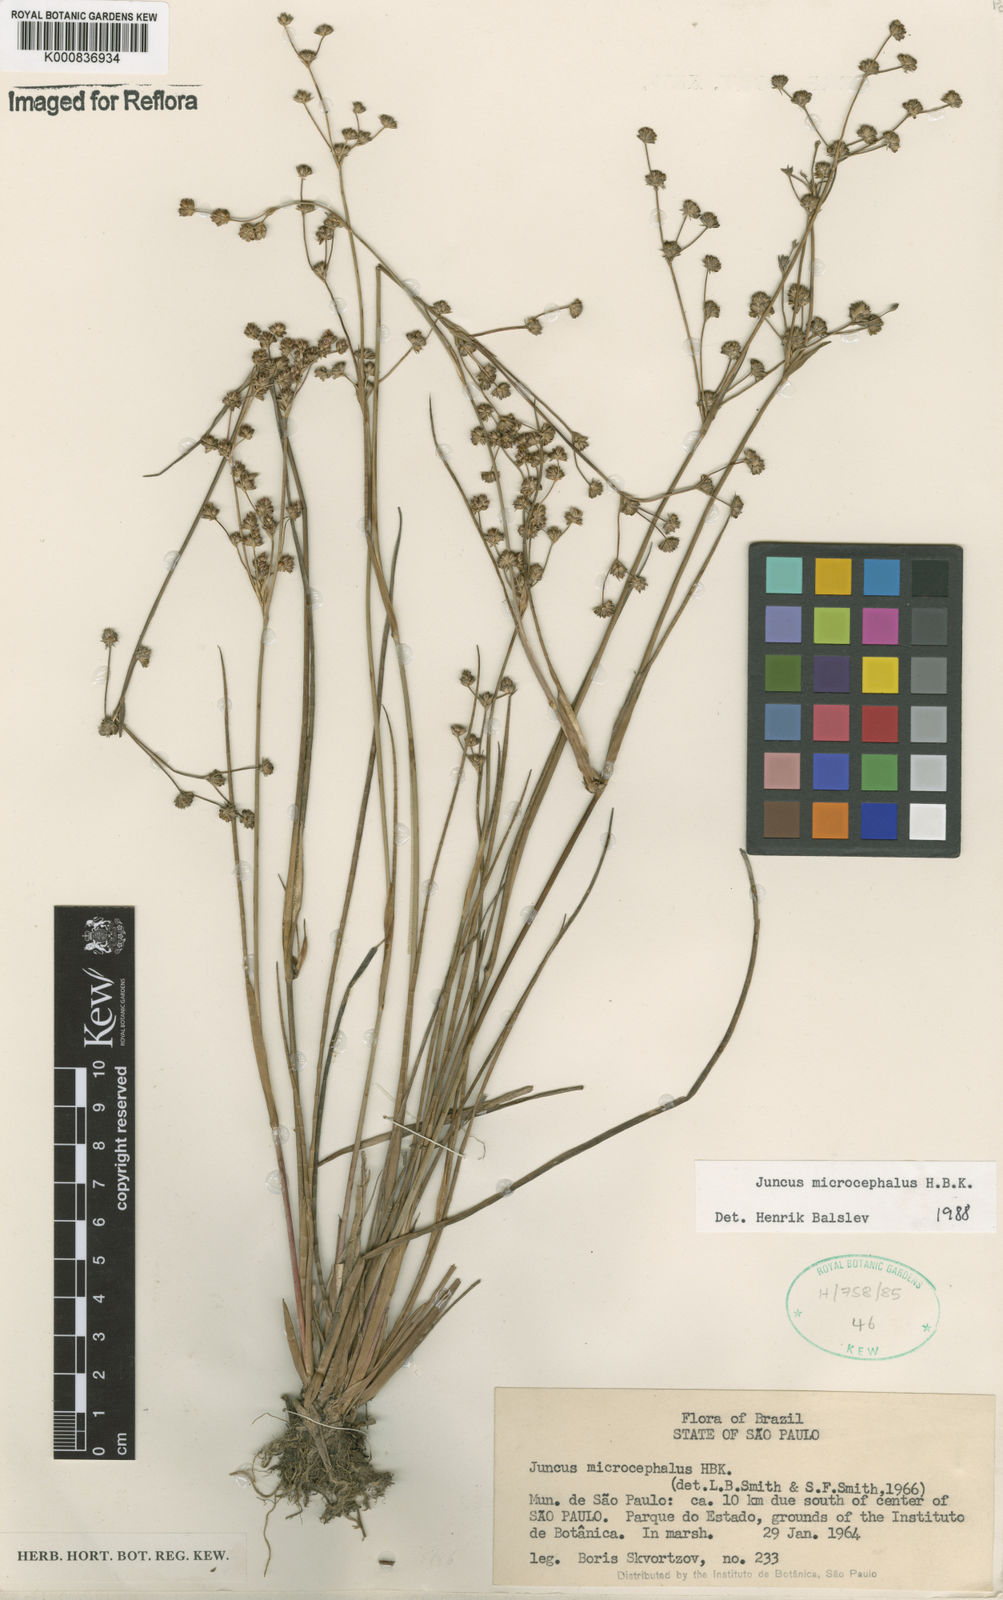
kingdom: Plantae
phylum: Tracheophyta
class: Liliopsida
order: Poales
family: Juncaceae
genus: Juncus
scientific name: Juncus microcephalus
